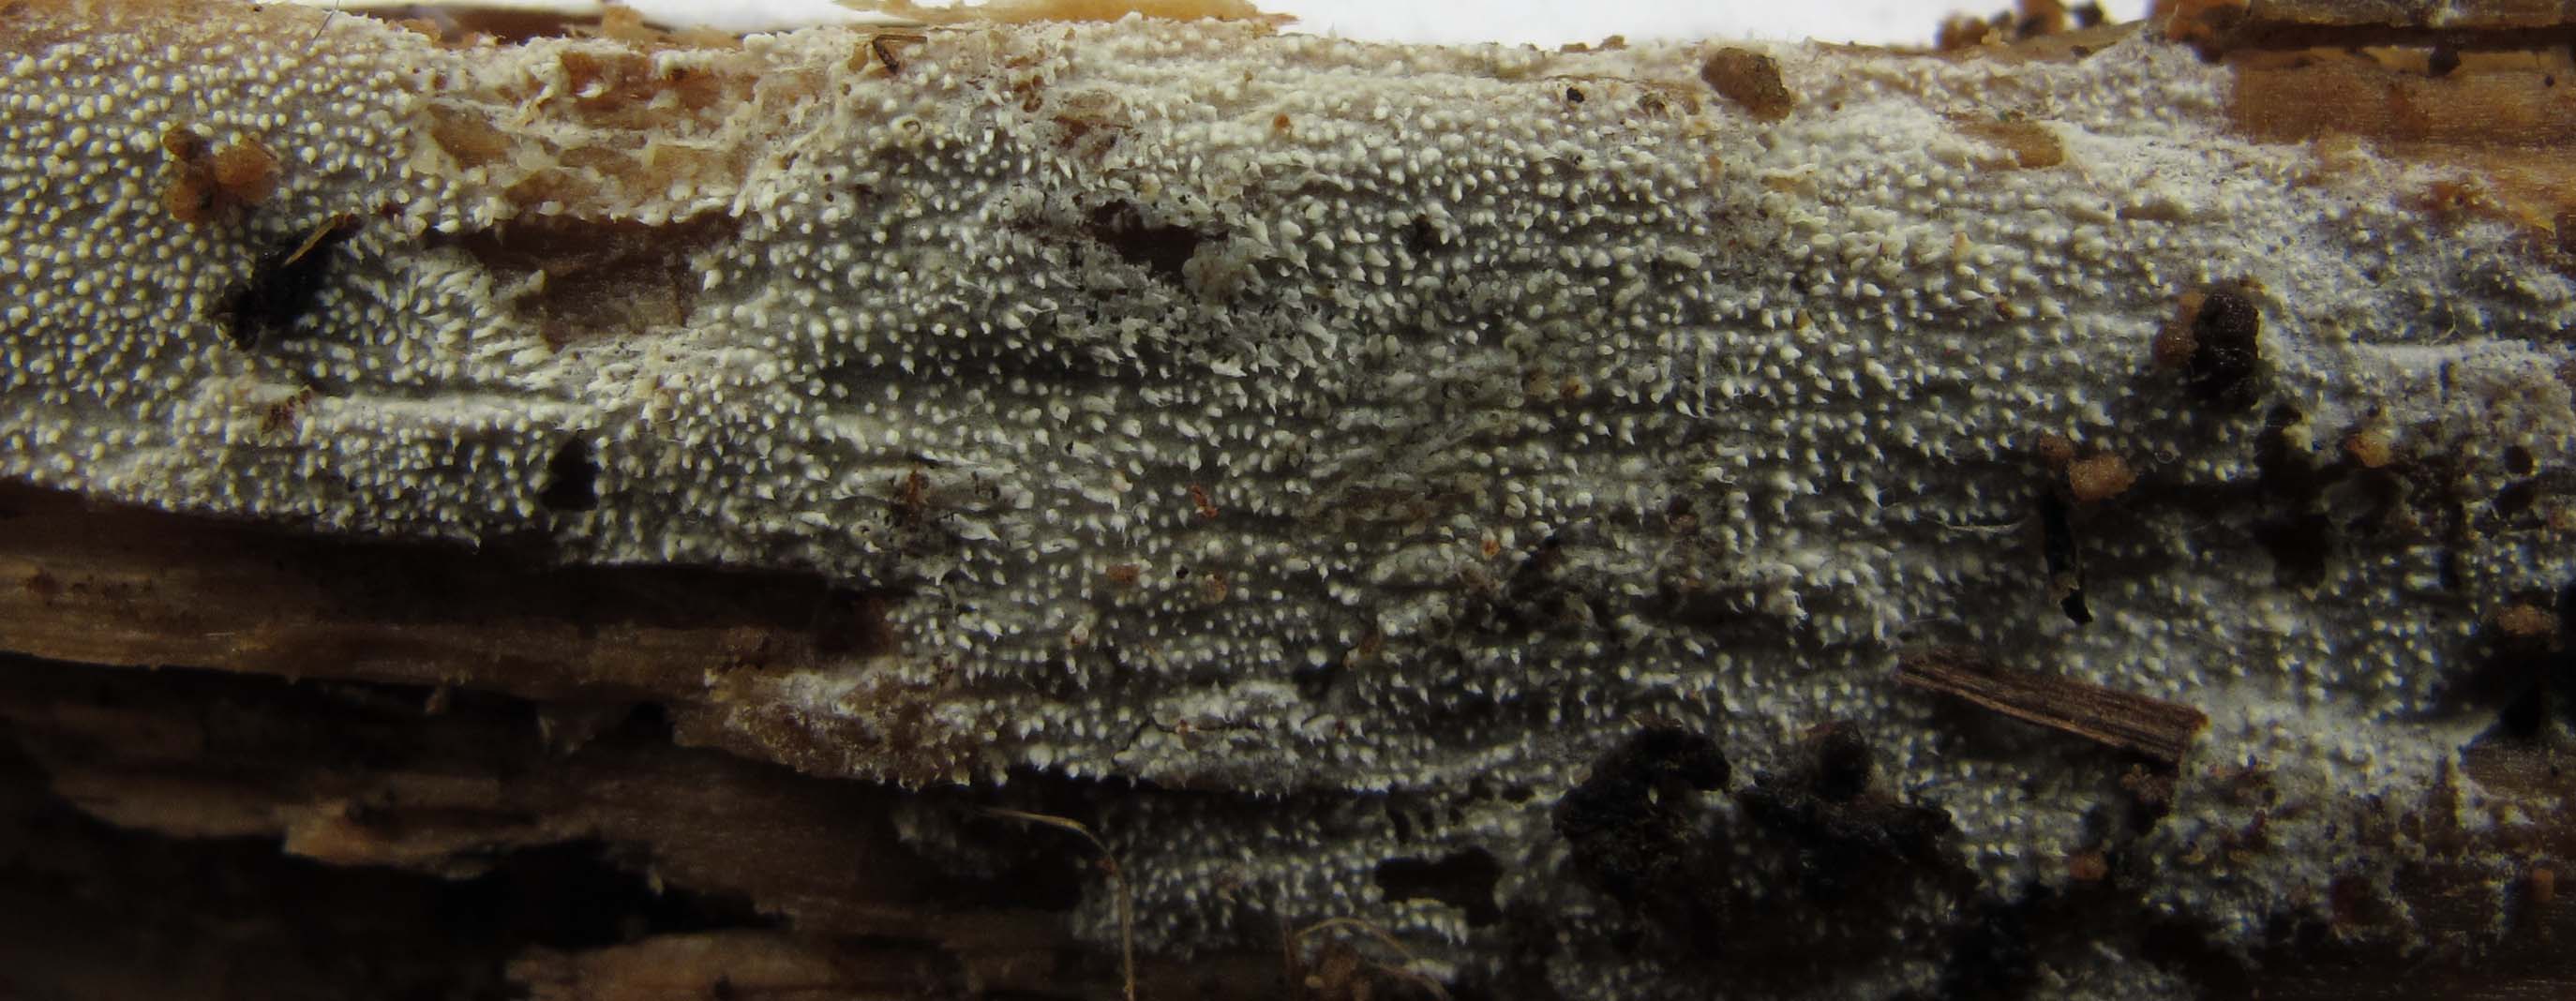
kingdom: Fungi
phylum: Basidiomycota
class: Agaricomycetes
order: Hymenochaetales
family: Schizoporaceae
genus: Xylodon
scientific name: Xylodon asper
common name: fjern tandsvamp
